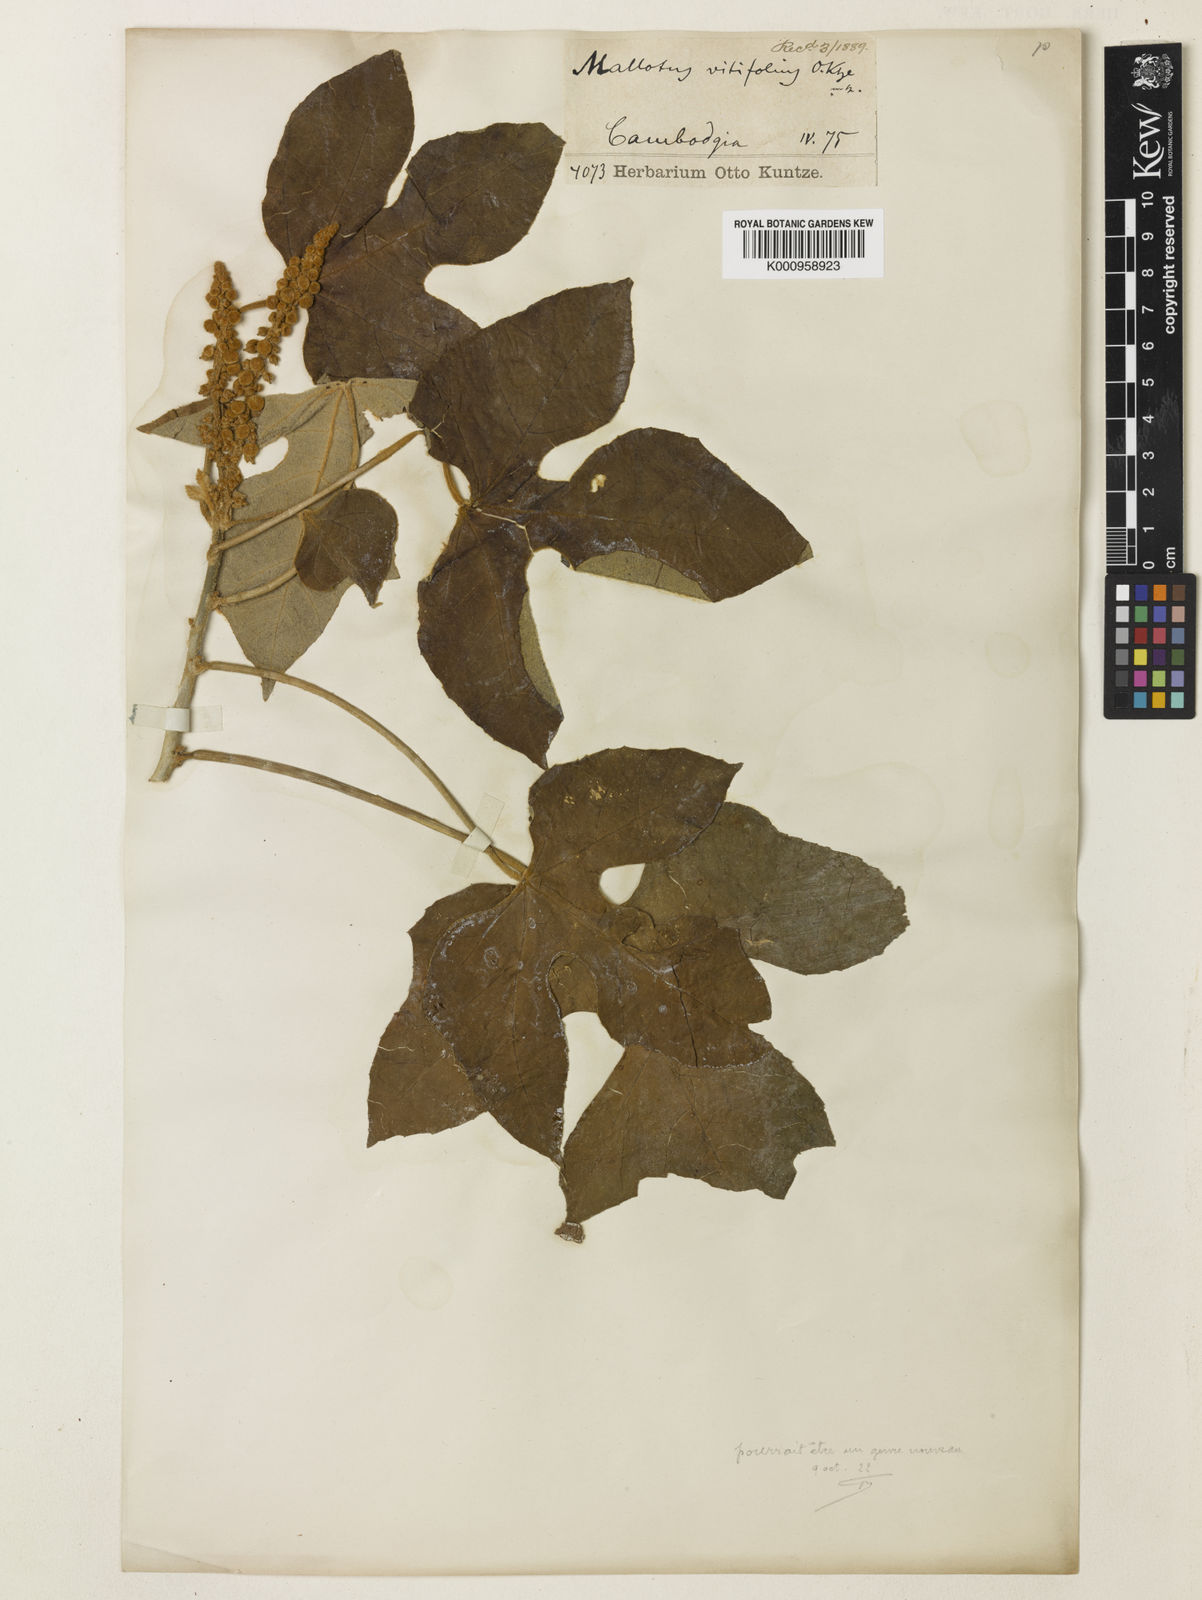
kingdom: Plantae
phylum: Tracheophyta
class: Magnoliopsida
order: Malpighiales
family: Euphorbiaceae
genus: Melanolepis
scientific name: Melanolepis vitifolia
